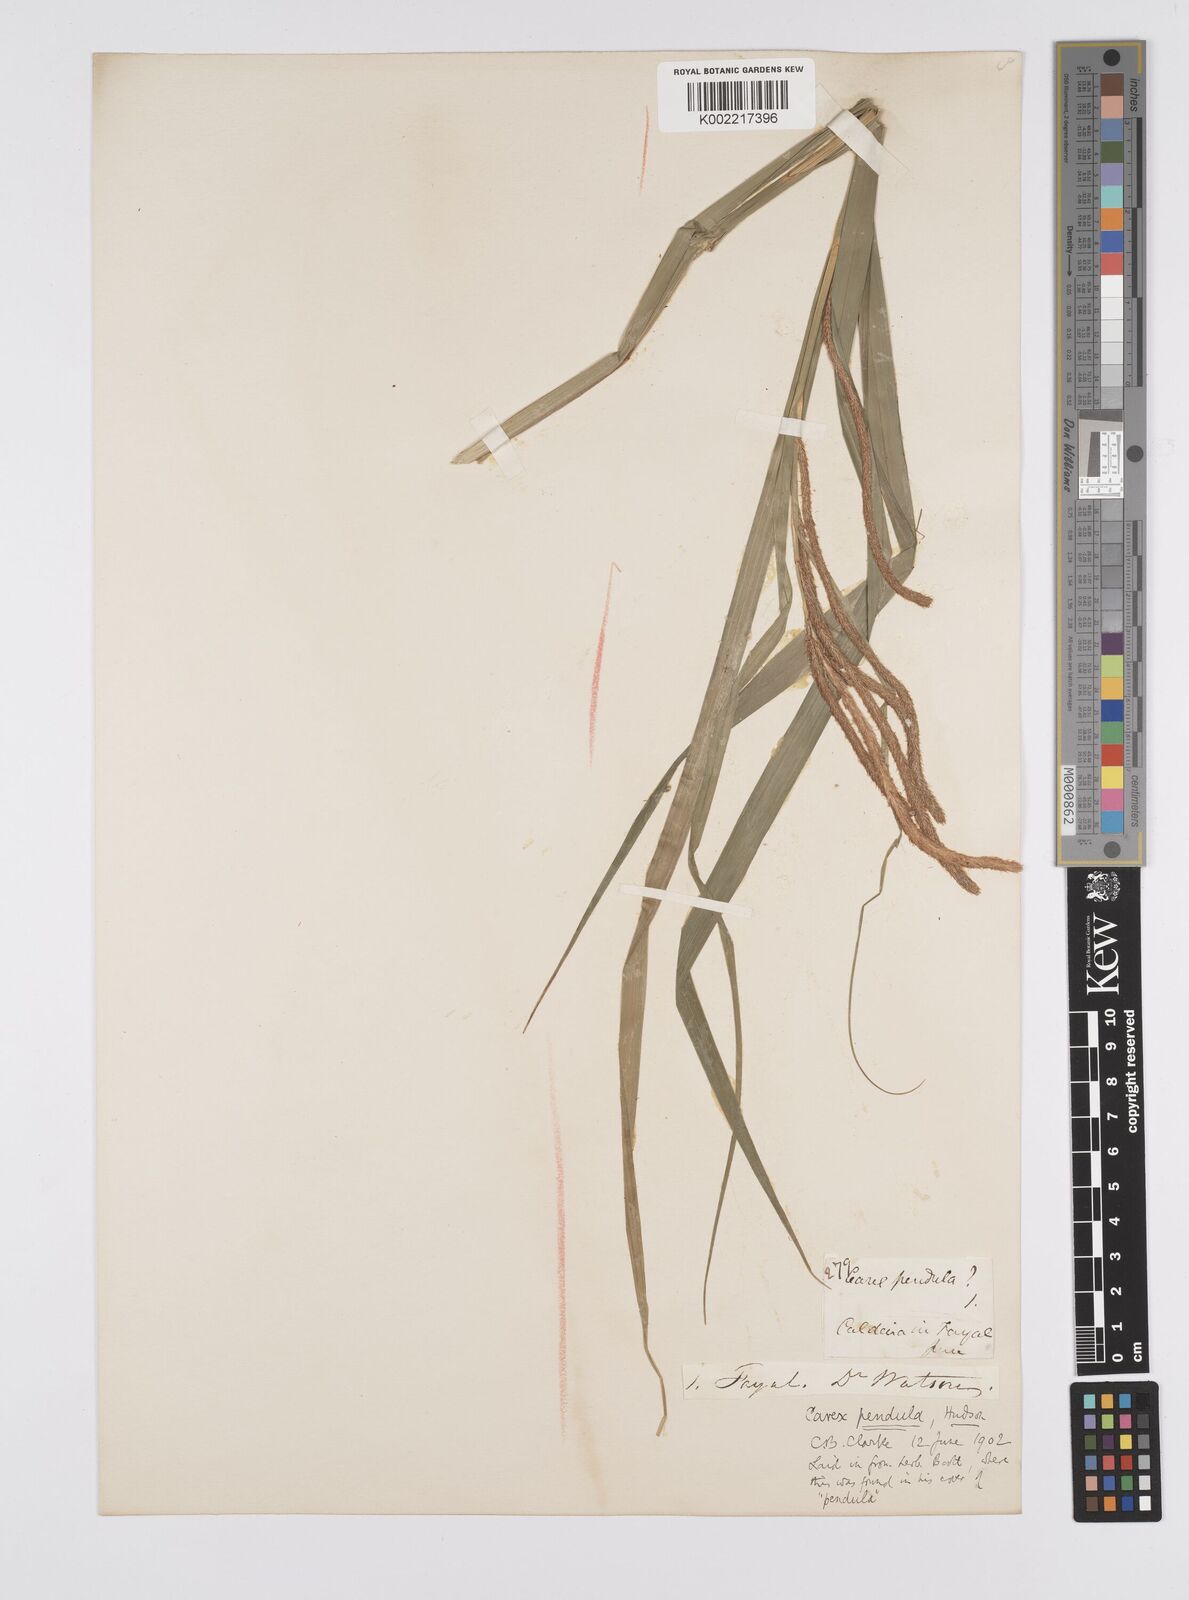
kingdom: Plantae
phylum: Tracheophyta
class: Liliopsida
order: Poales
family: Cyperaceae
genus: Carex
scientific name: Carex pendula
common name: Pendulous sedge
